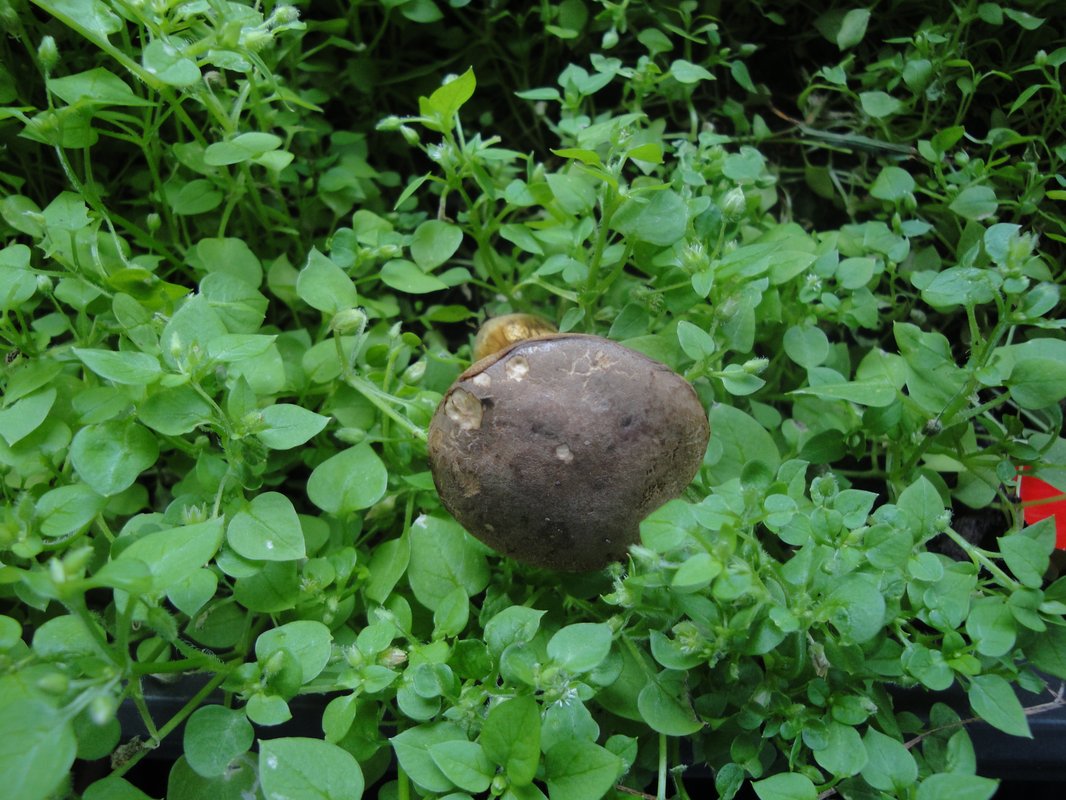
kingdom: Fungi
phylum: Basidiomycota
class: Agaricomycetes
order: Boletales
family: Boletaceae
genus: Xerocomellus
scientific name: Xerocomellus chrysenteron
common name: rødsprukken rørhat
